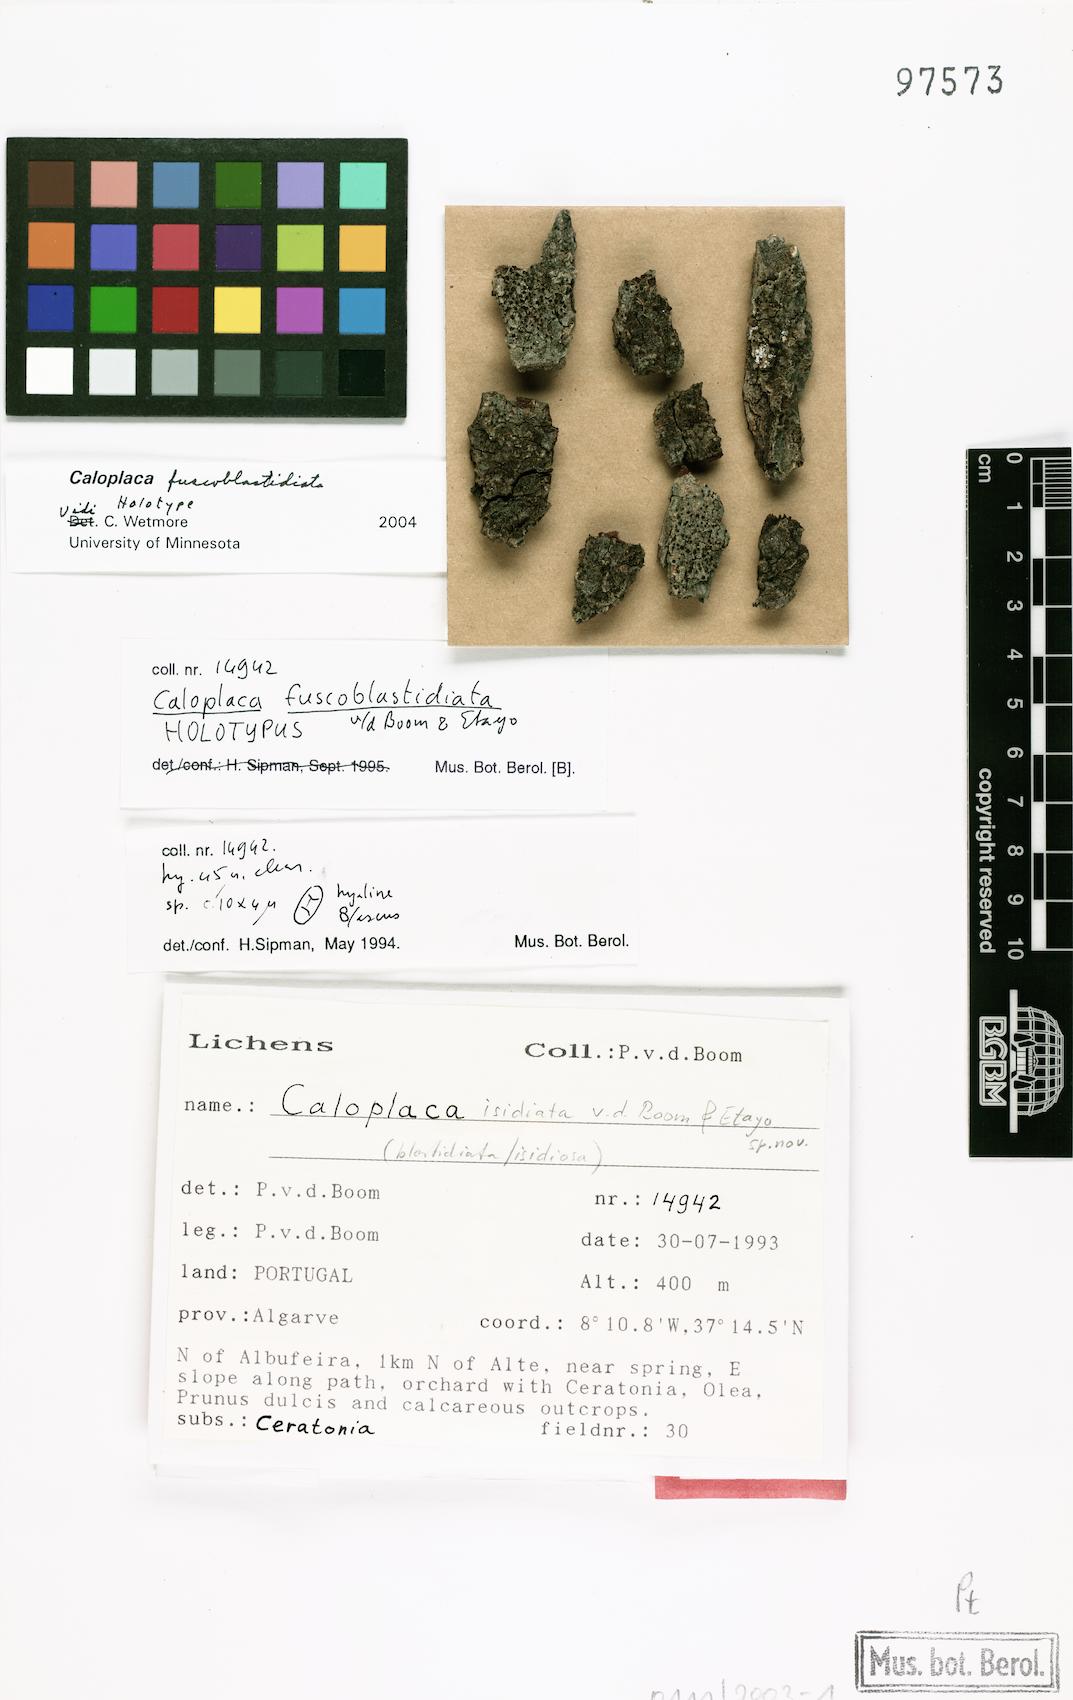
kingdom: Fungi
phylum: Ascomycota
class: Lecanoromycetes
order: Teloschistales
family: Teloschistaceae
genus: Caloplaca
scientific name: Caloplaca
